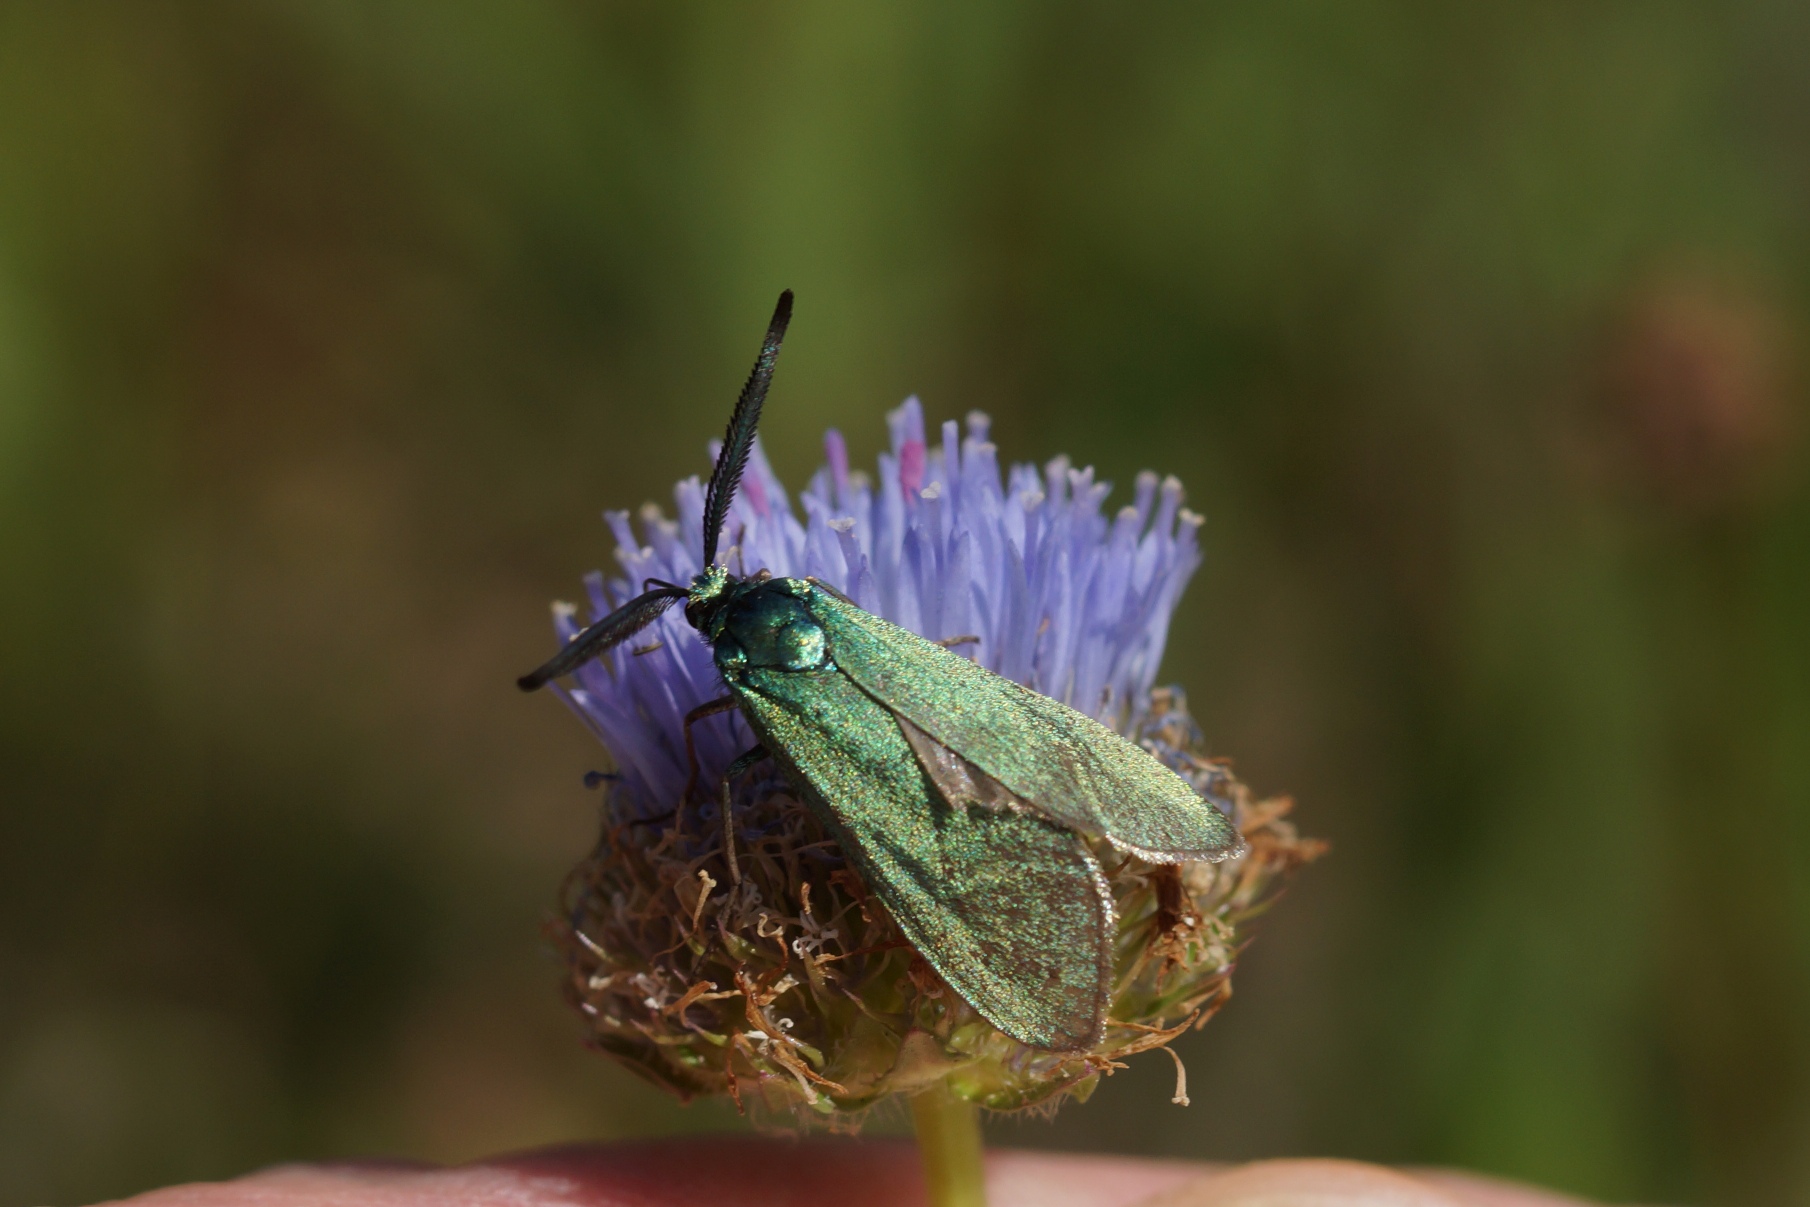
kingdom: Animalia
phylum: Arthropoda
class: Insecta
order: Lepidoptera
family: Zygaenidae
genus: Adscita
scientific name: Adscita statices
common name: Metalvinge
